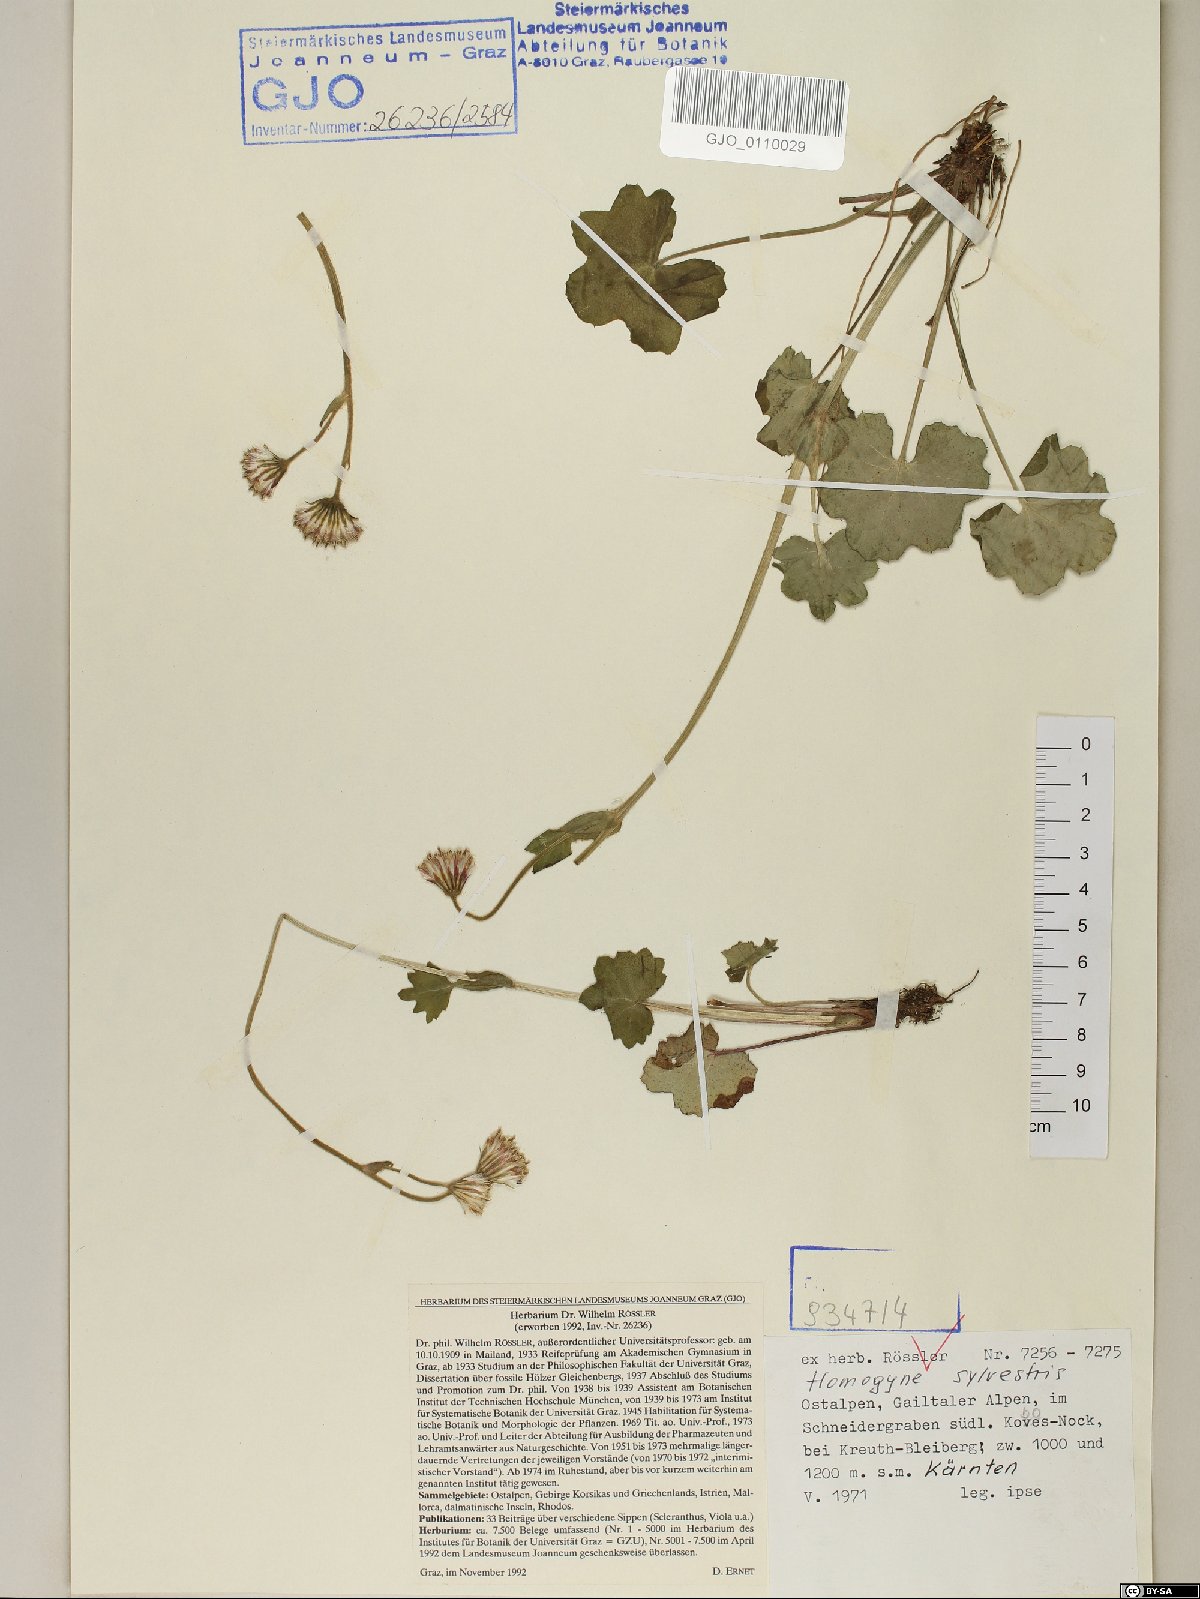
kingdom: Plantae
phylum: Tracheophyta
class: Magnoliopsida
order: Asterales
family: Asteraceae
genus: Homogyne
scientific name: Homogyne sylvestris
